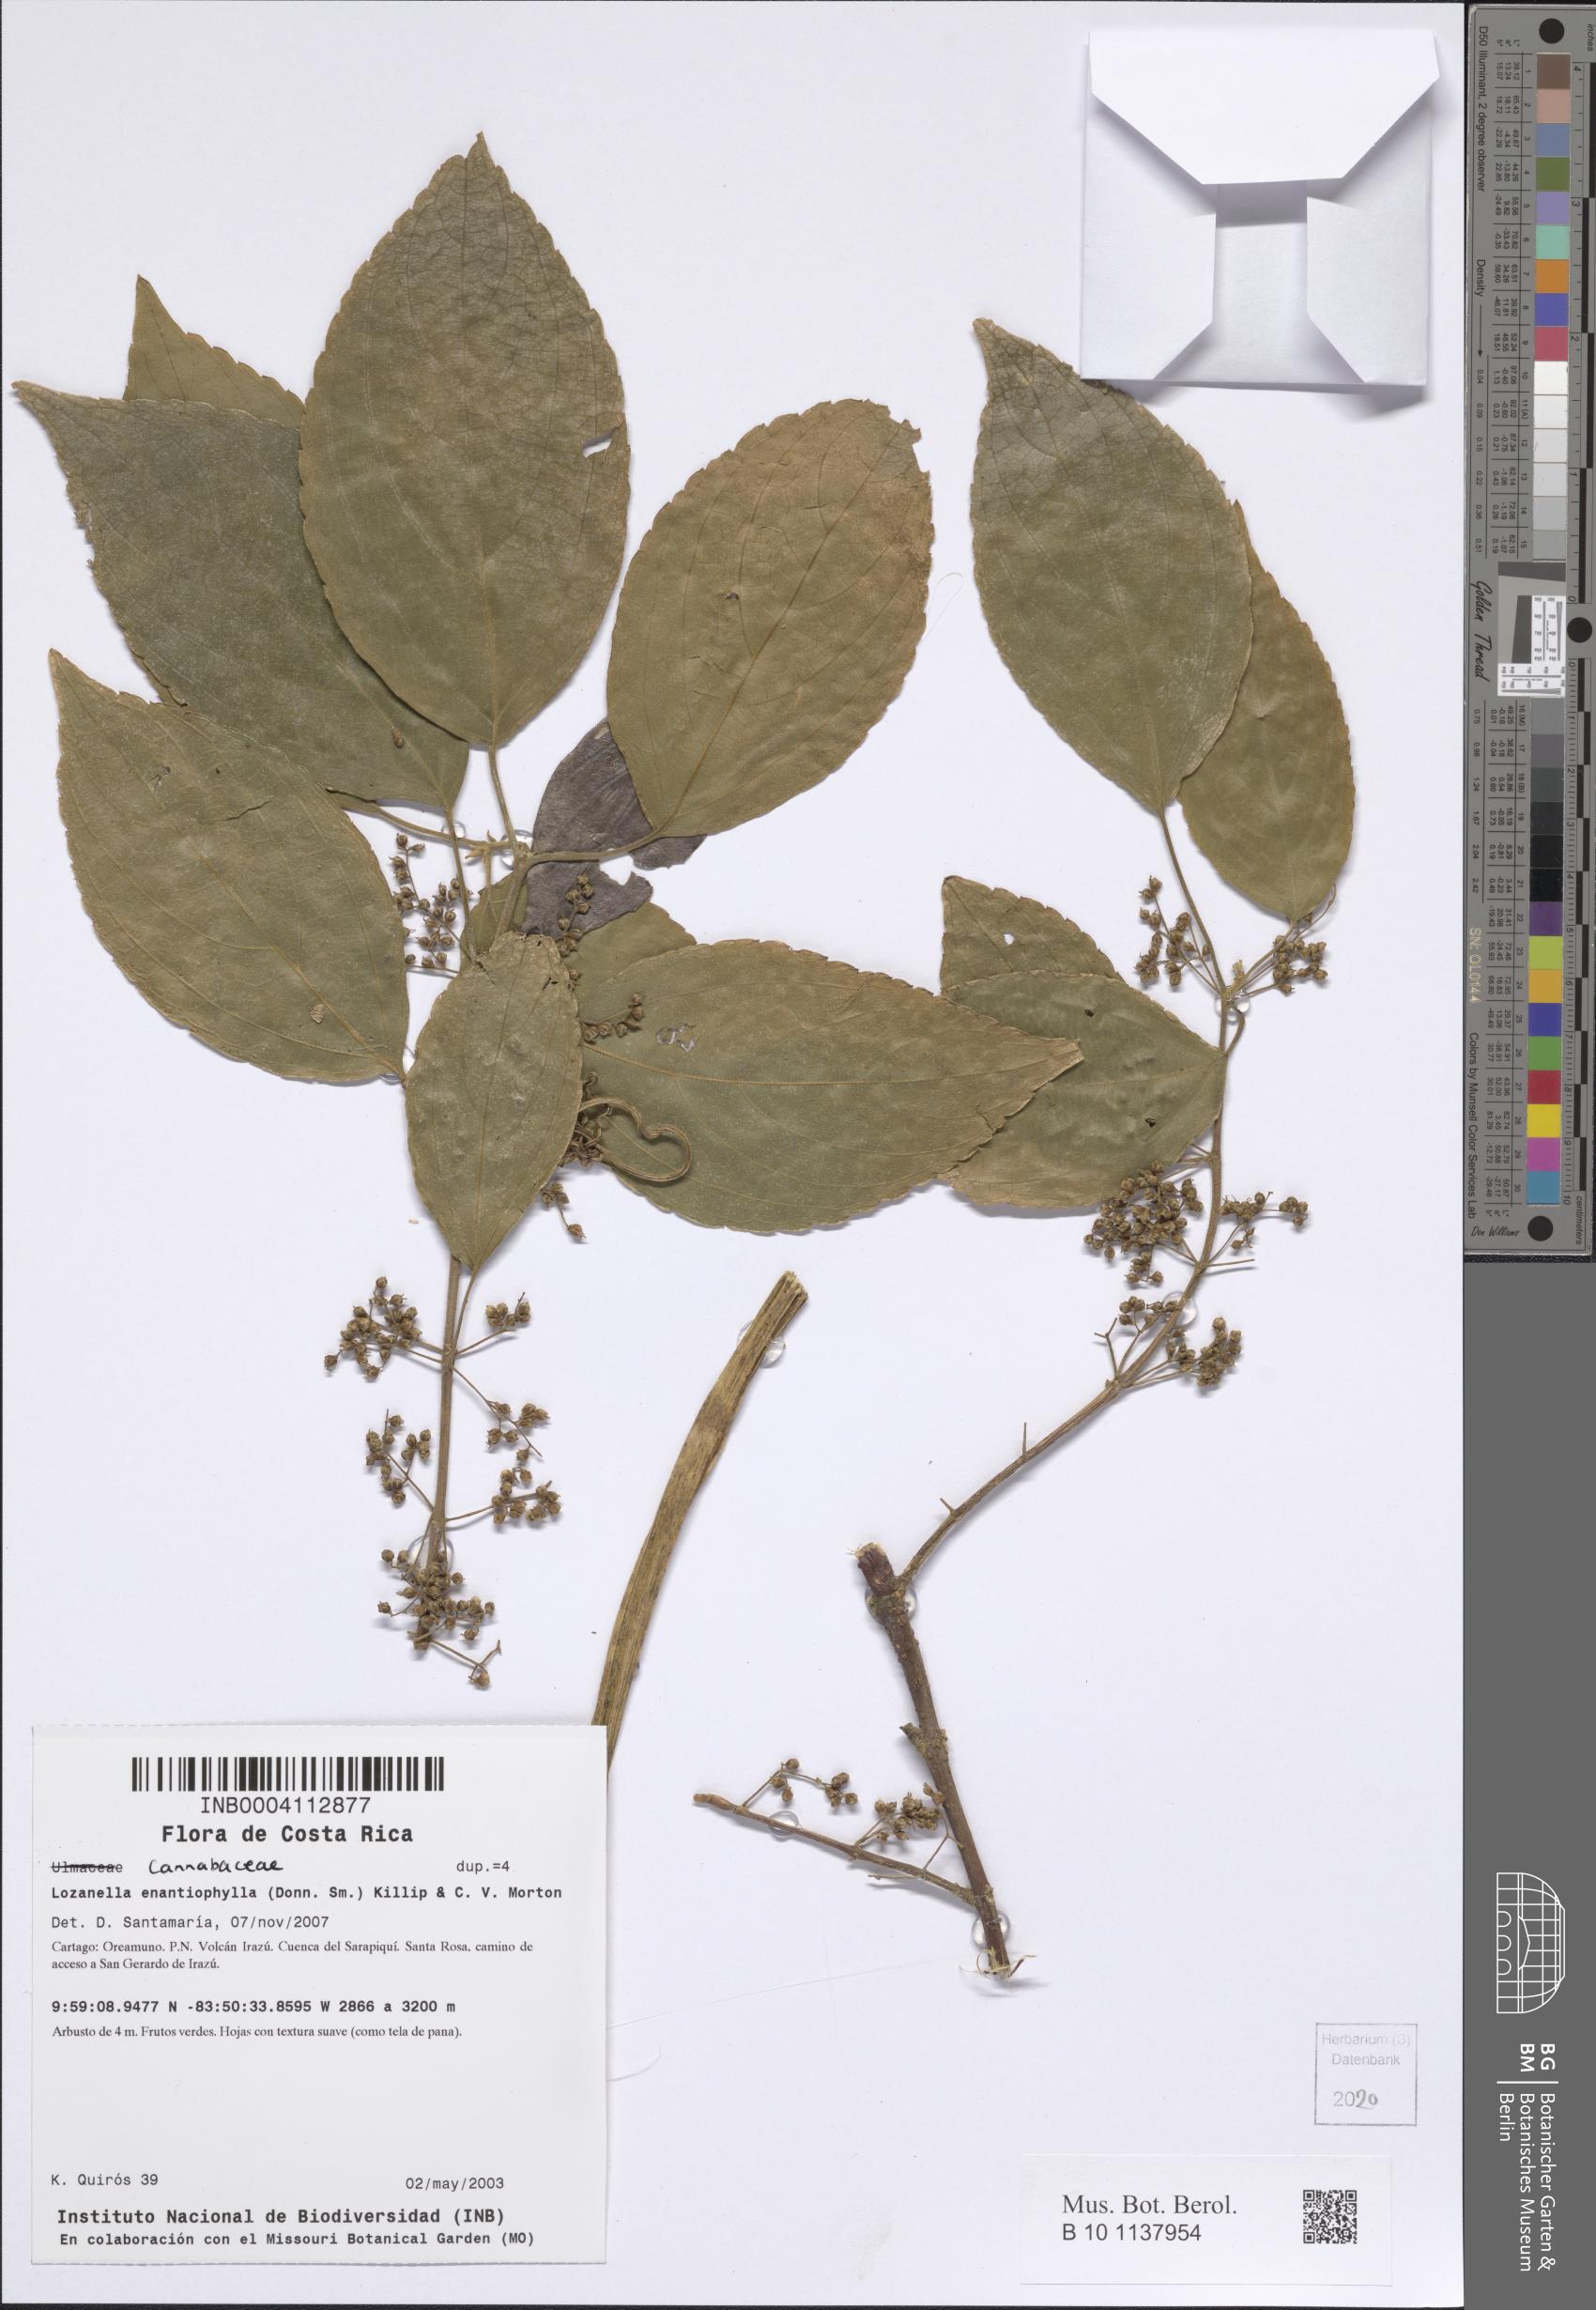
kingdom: Plantae
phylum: Tracheophyta
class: Magnoliopsida
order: Rosales
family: Cannabaceae
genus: Lozanella
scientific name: Lozanella enantiophylla
